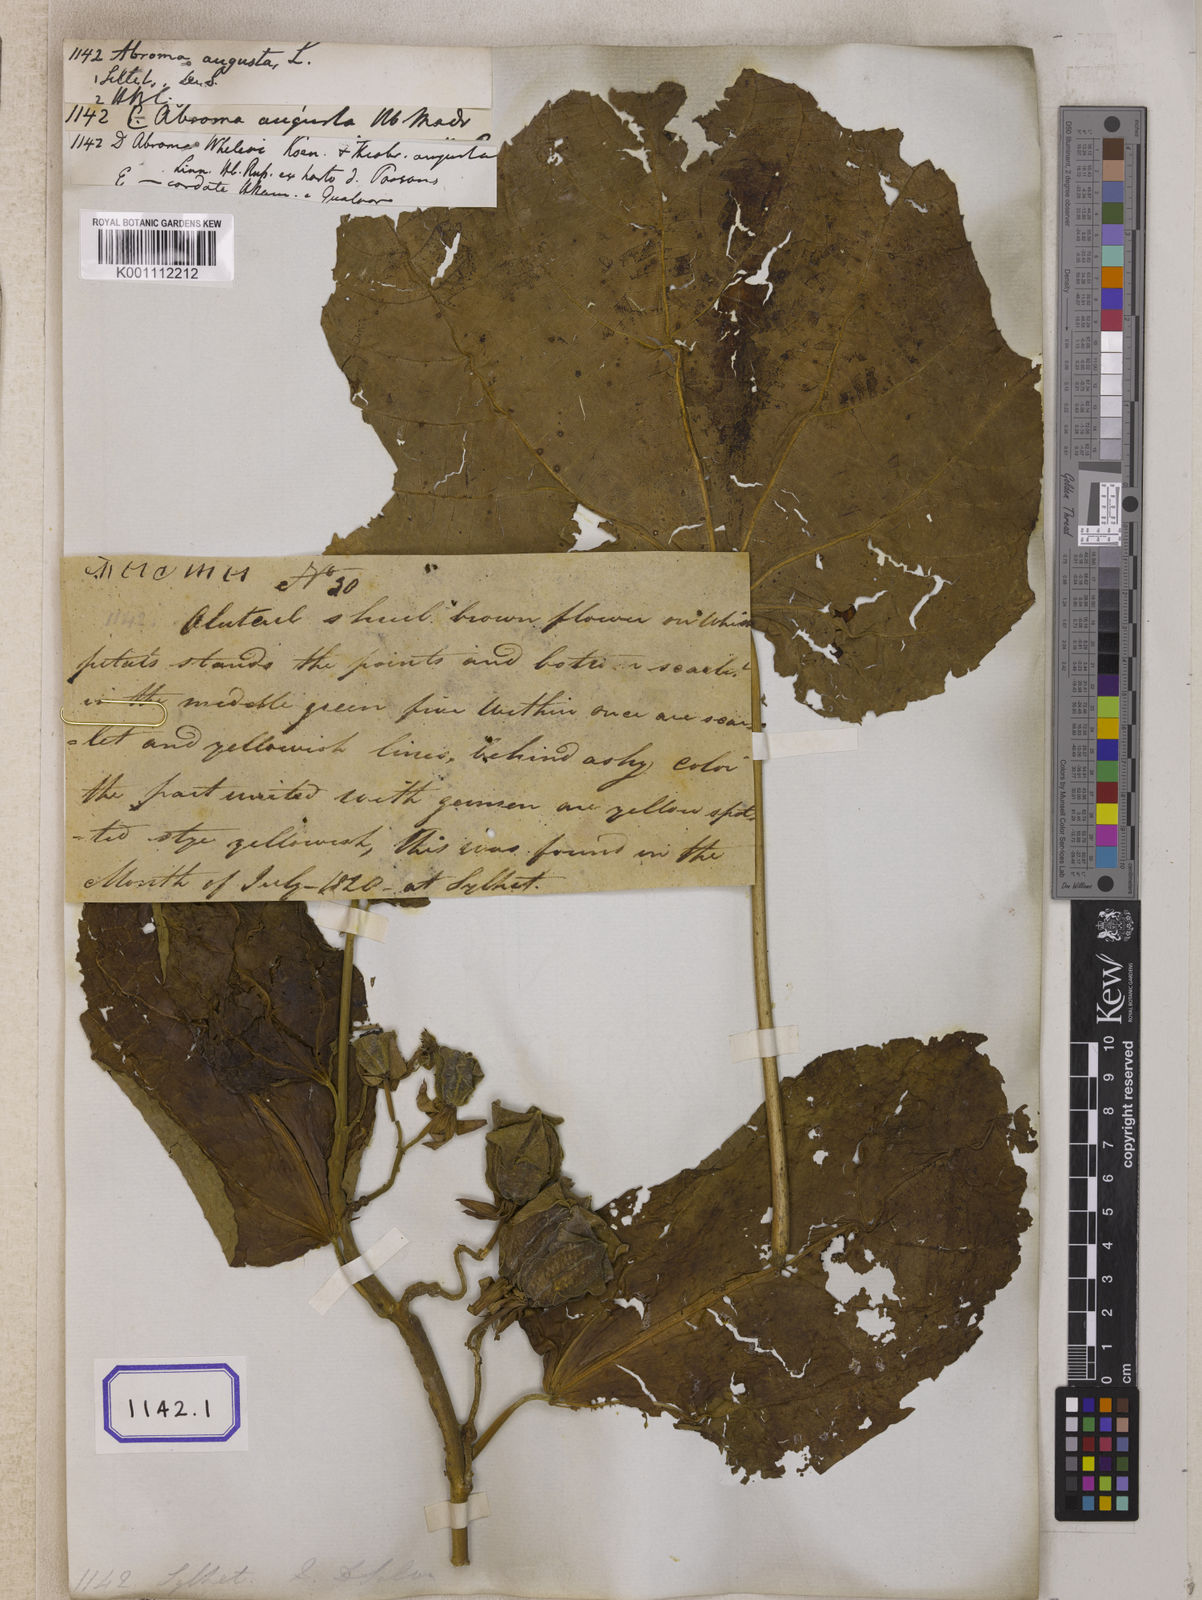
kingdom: Plantae
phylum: Tracheophyta
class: Magnoliopsida
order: Malvales
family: Malvaceae
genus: Abroma
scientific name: Abroma augustum
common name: Devil's-cotton
